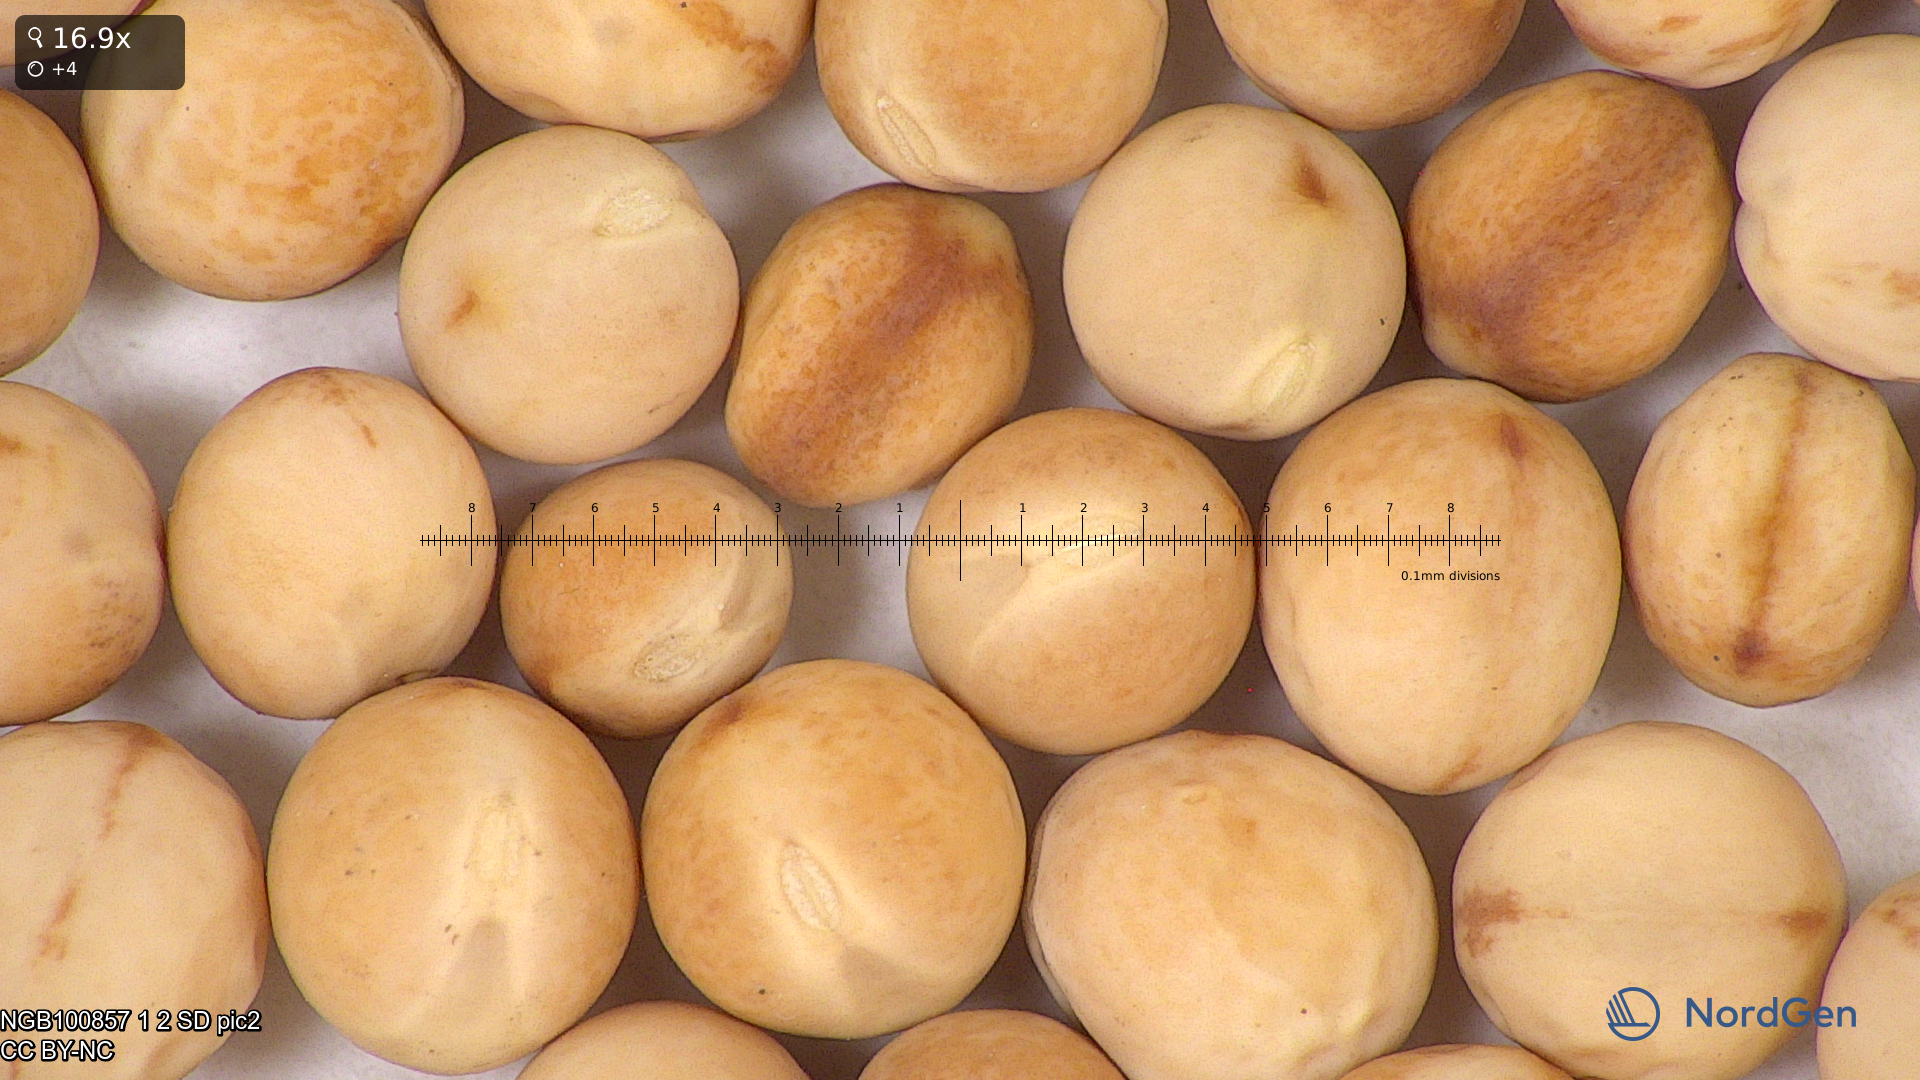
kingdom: Plantae
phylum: Tracheophyta
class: Magnoliopsida
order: Fabales
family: Fabaceae
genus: Lathyrus
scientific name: Lathyrus oleraceus
